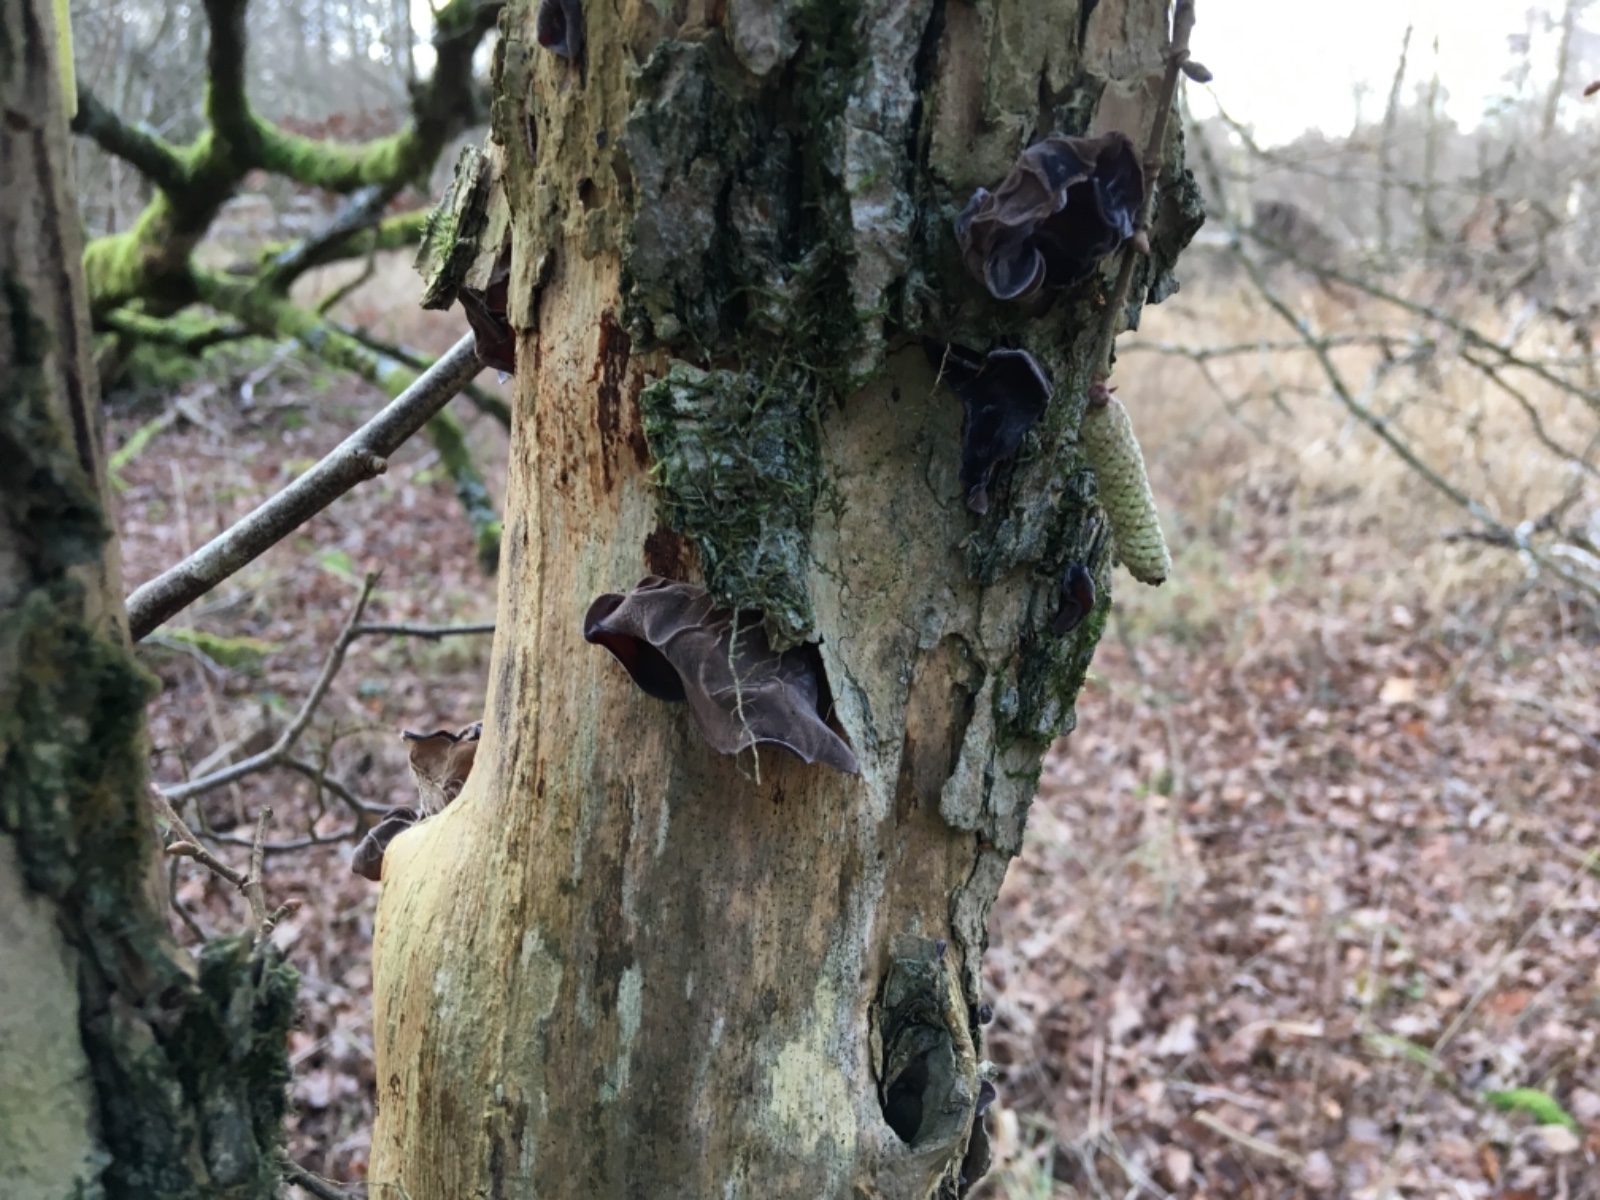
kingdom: Fungi
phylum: Basidiomycota
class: Agaricomycetes
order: Auriculariales
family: Auriculariaceae
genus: Auricularia
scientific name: Auricularia auricula-judae
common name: almindelig judasøre
